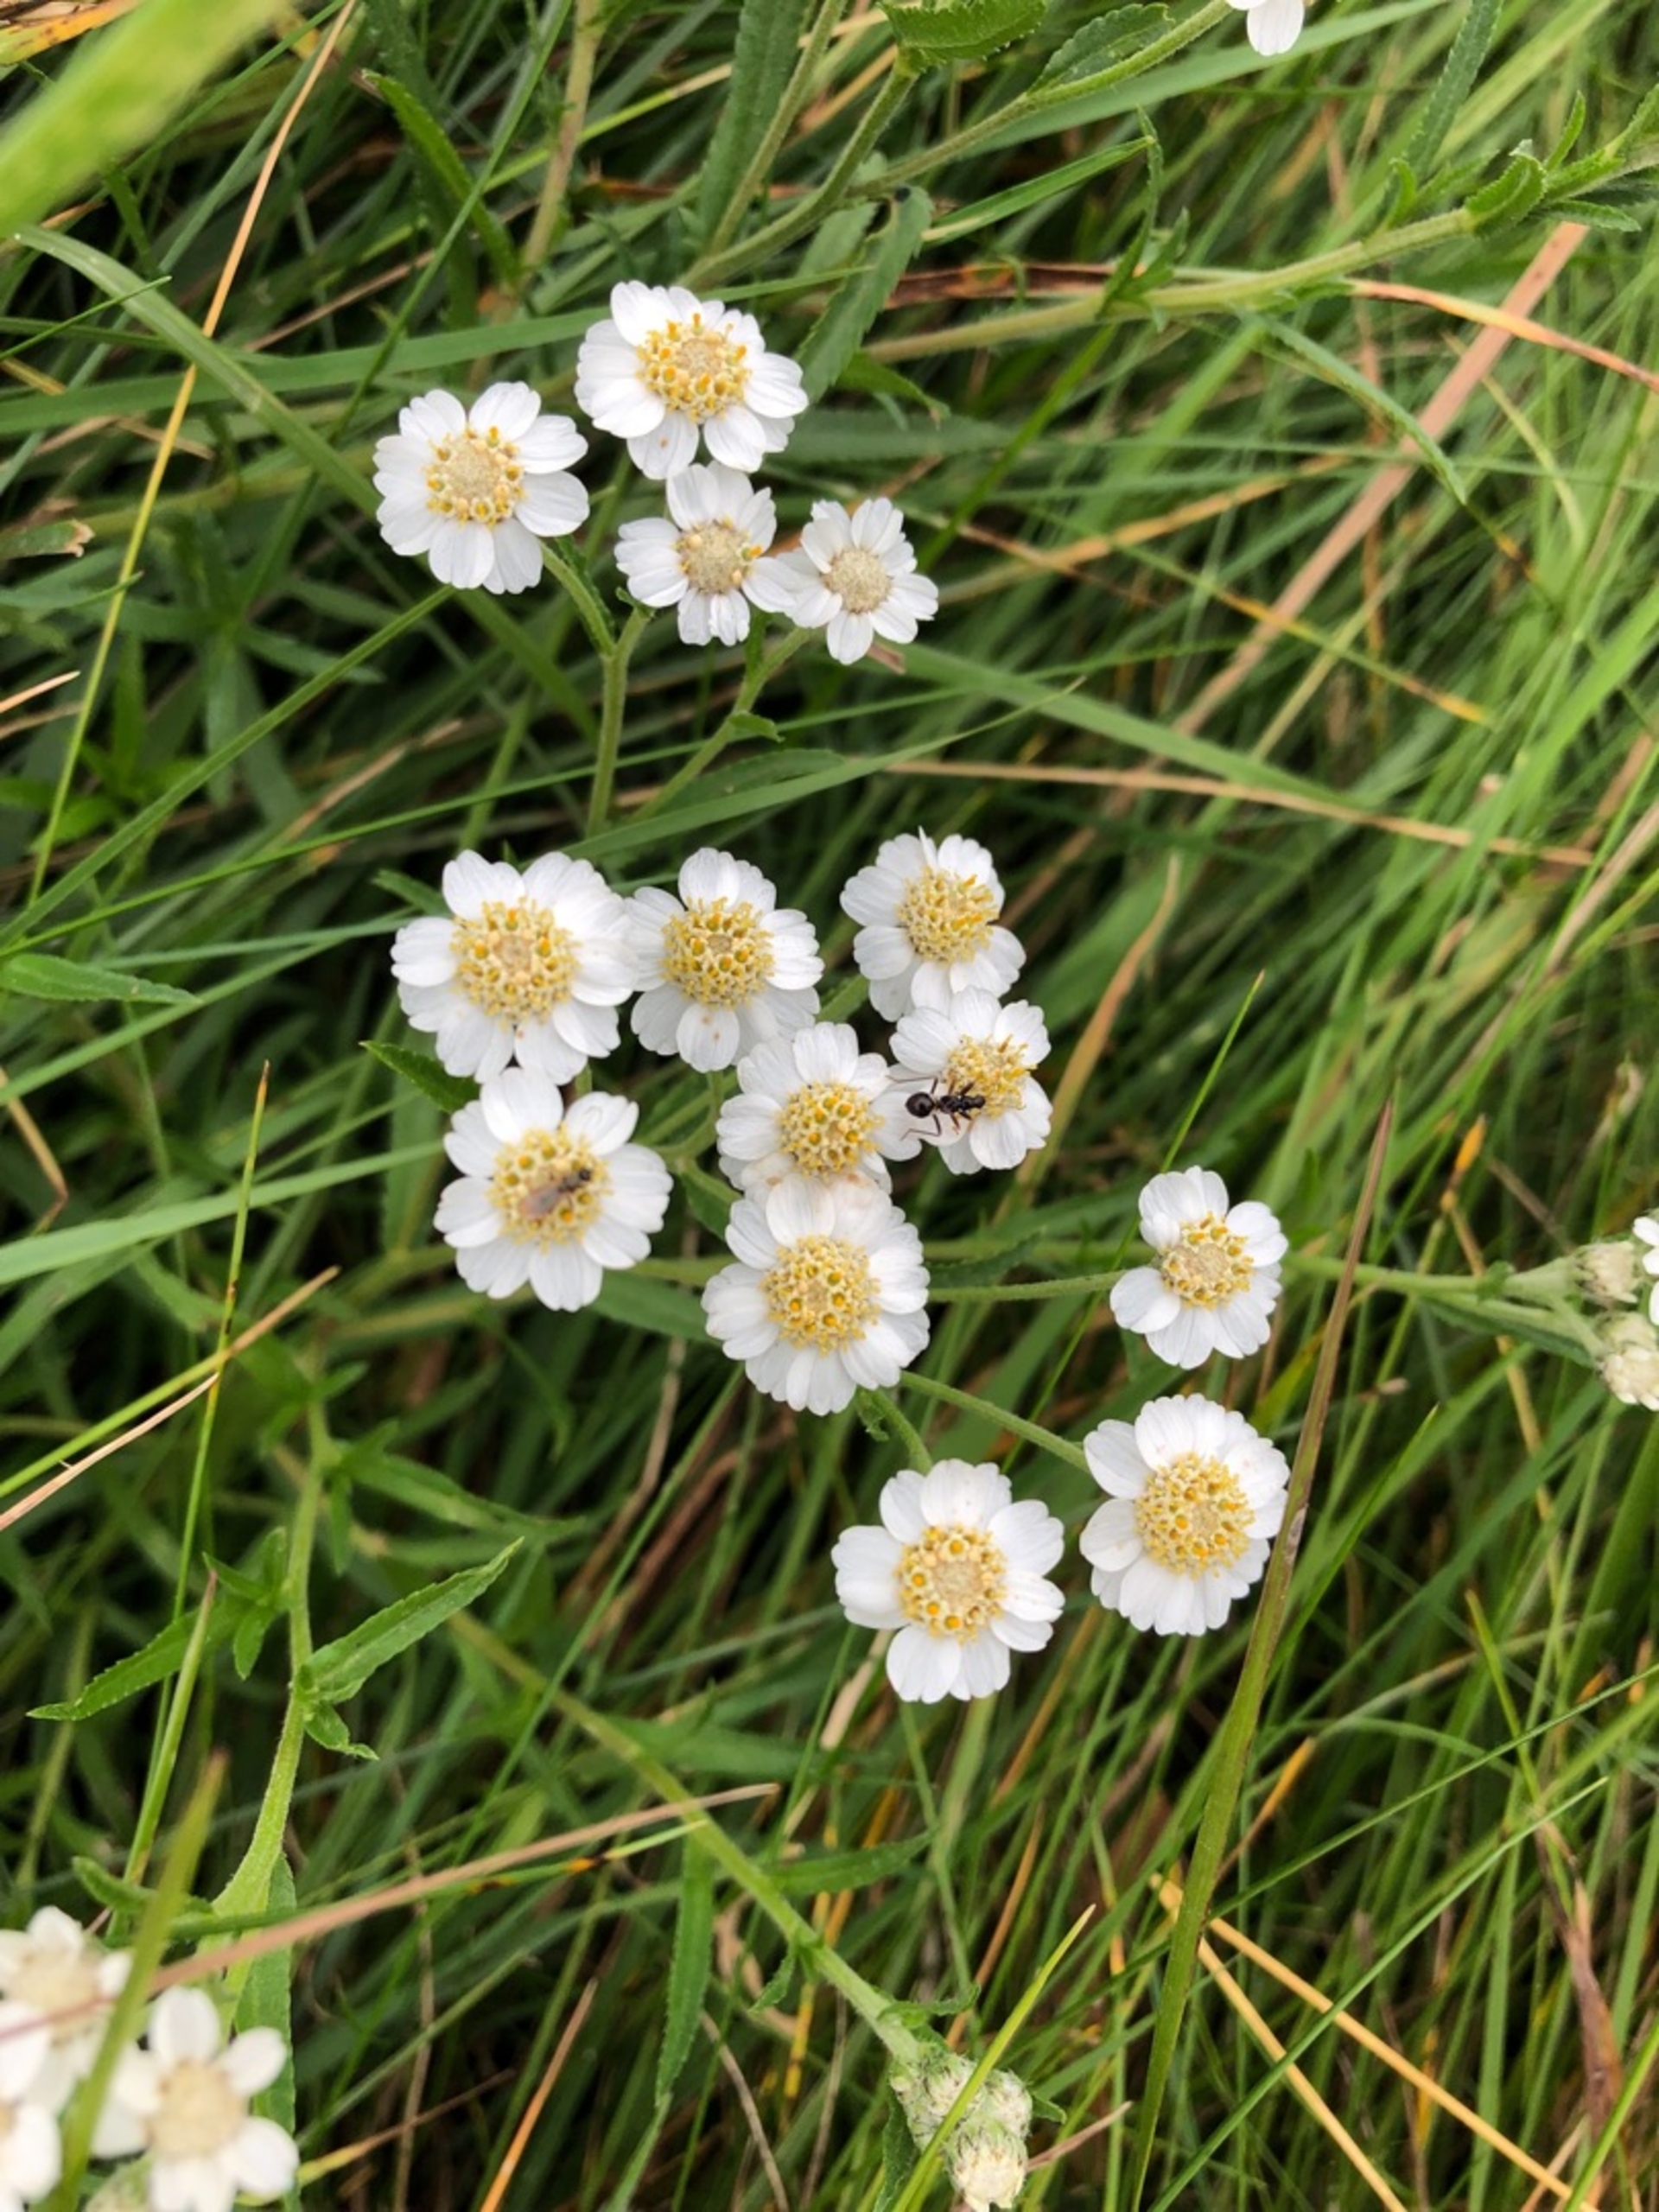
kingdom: Plantae
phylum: Tracheophyta
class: Magnoliopsida
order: Asterales
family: Asteraceae
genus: Achillea
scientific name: Achillea ptarmica
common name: Nyse-røllike
